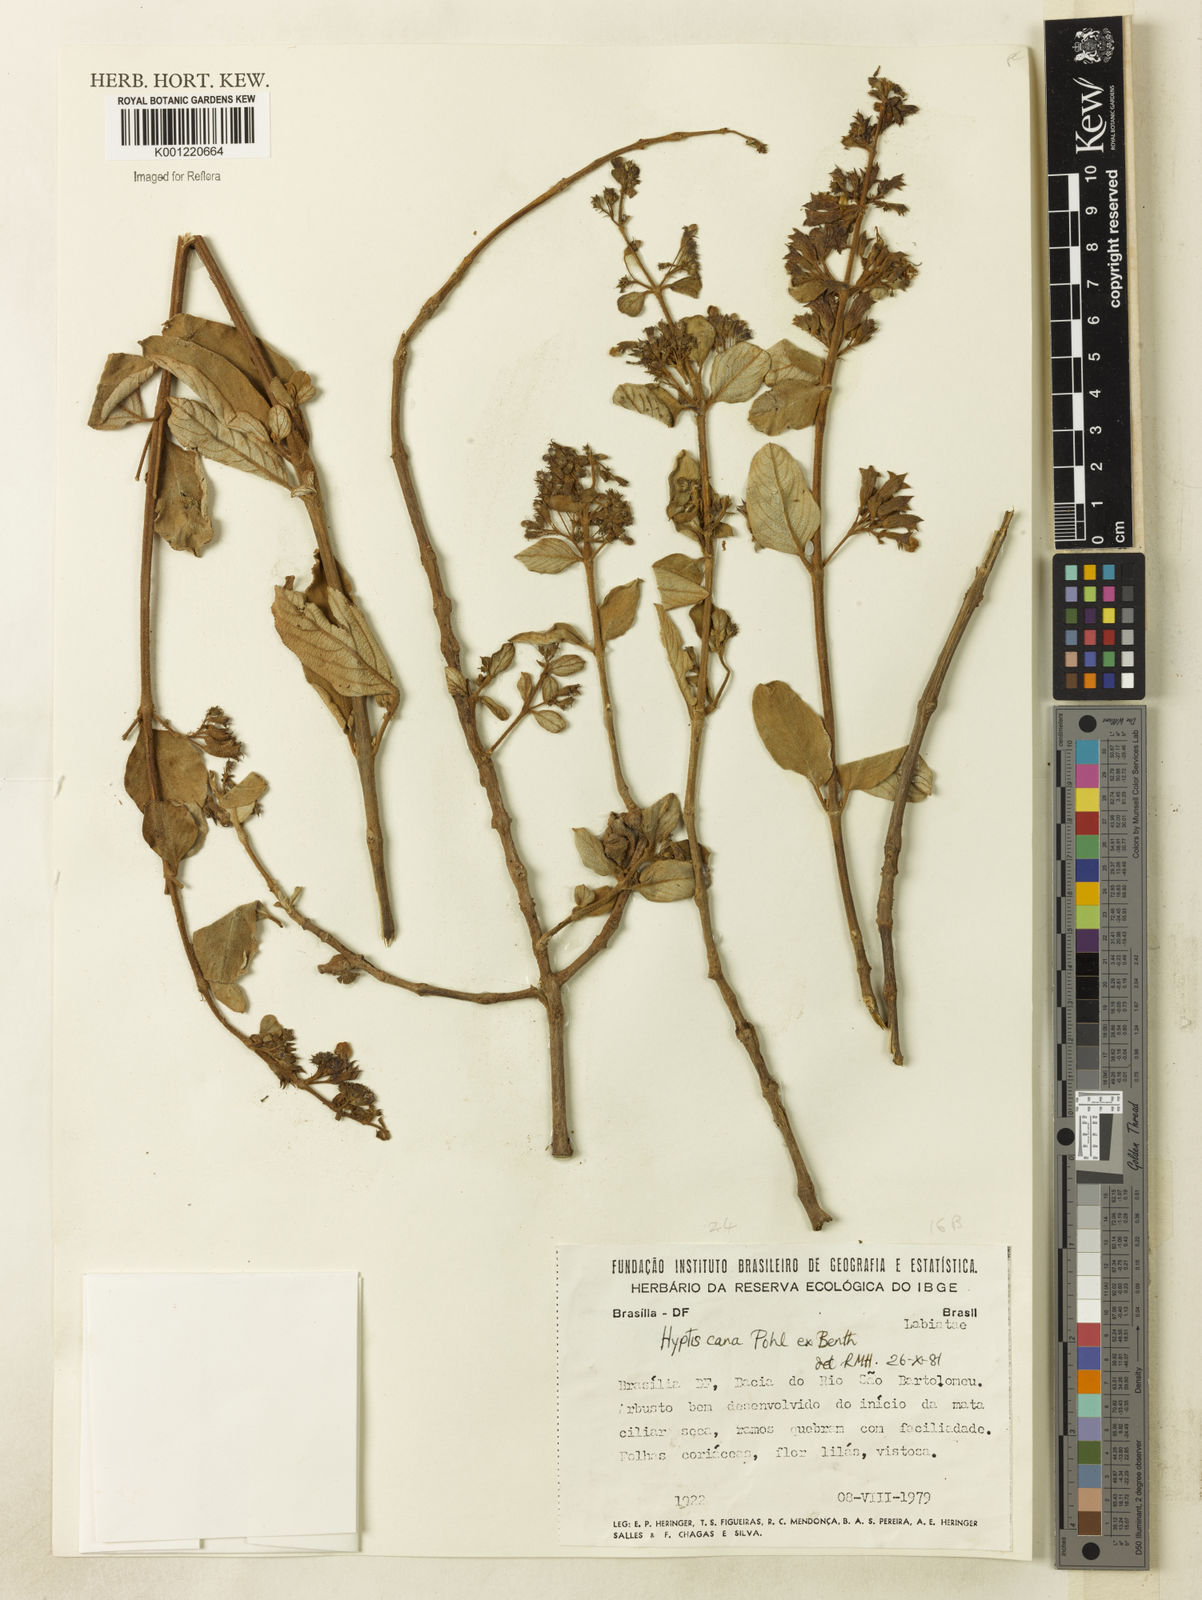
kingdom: Plantae
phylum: Tracheophyta
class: Magnoliopsida
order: Lamiales
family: Lamiaceae
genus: Hyptidendron
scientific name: Hyptidendron canum
